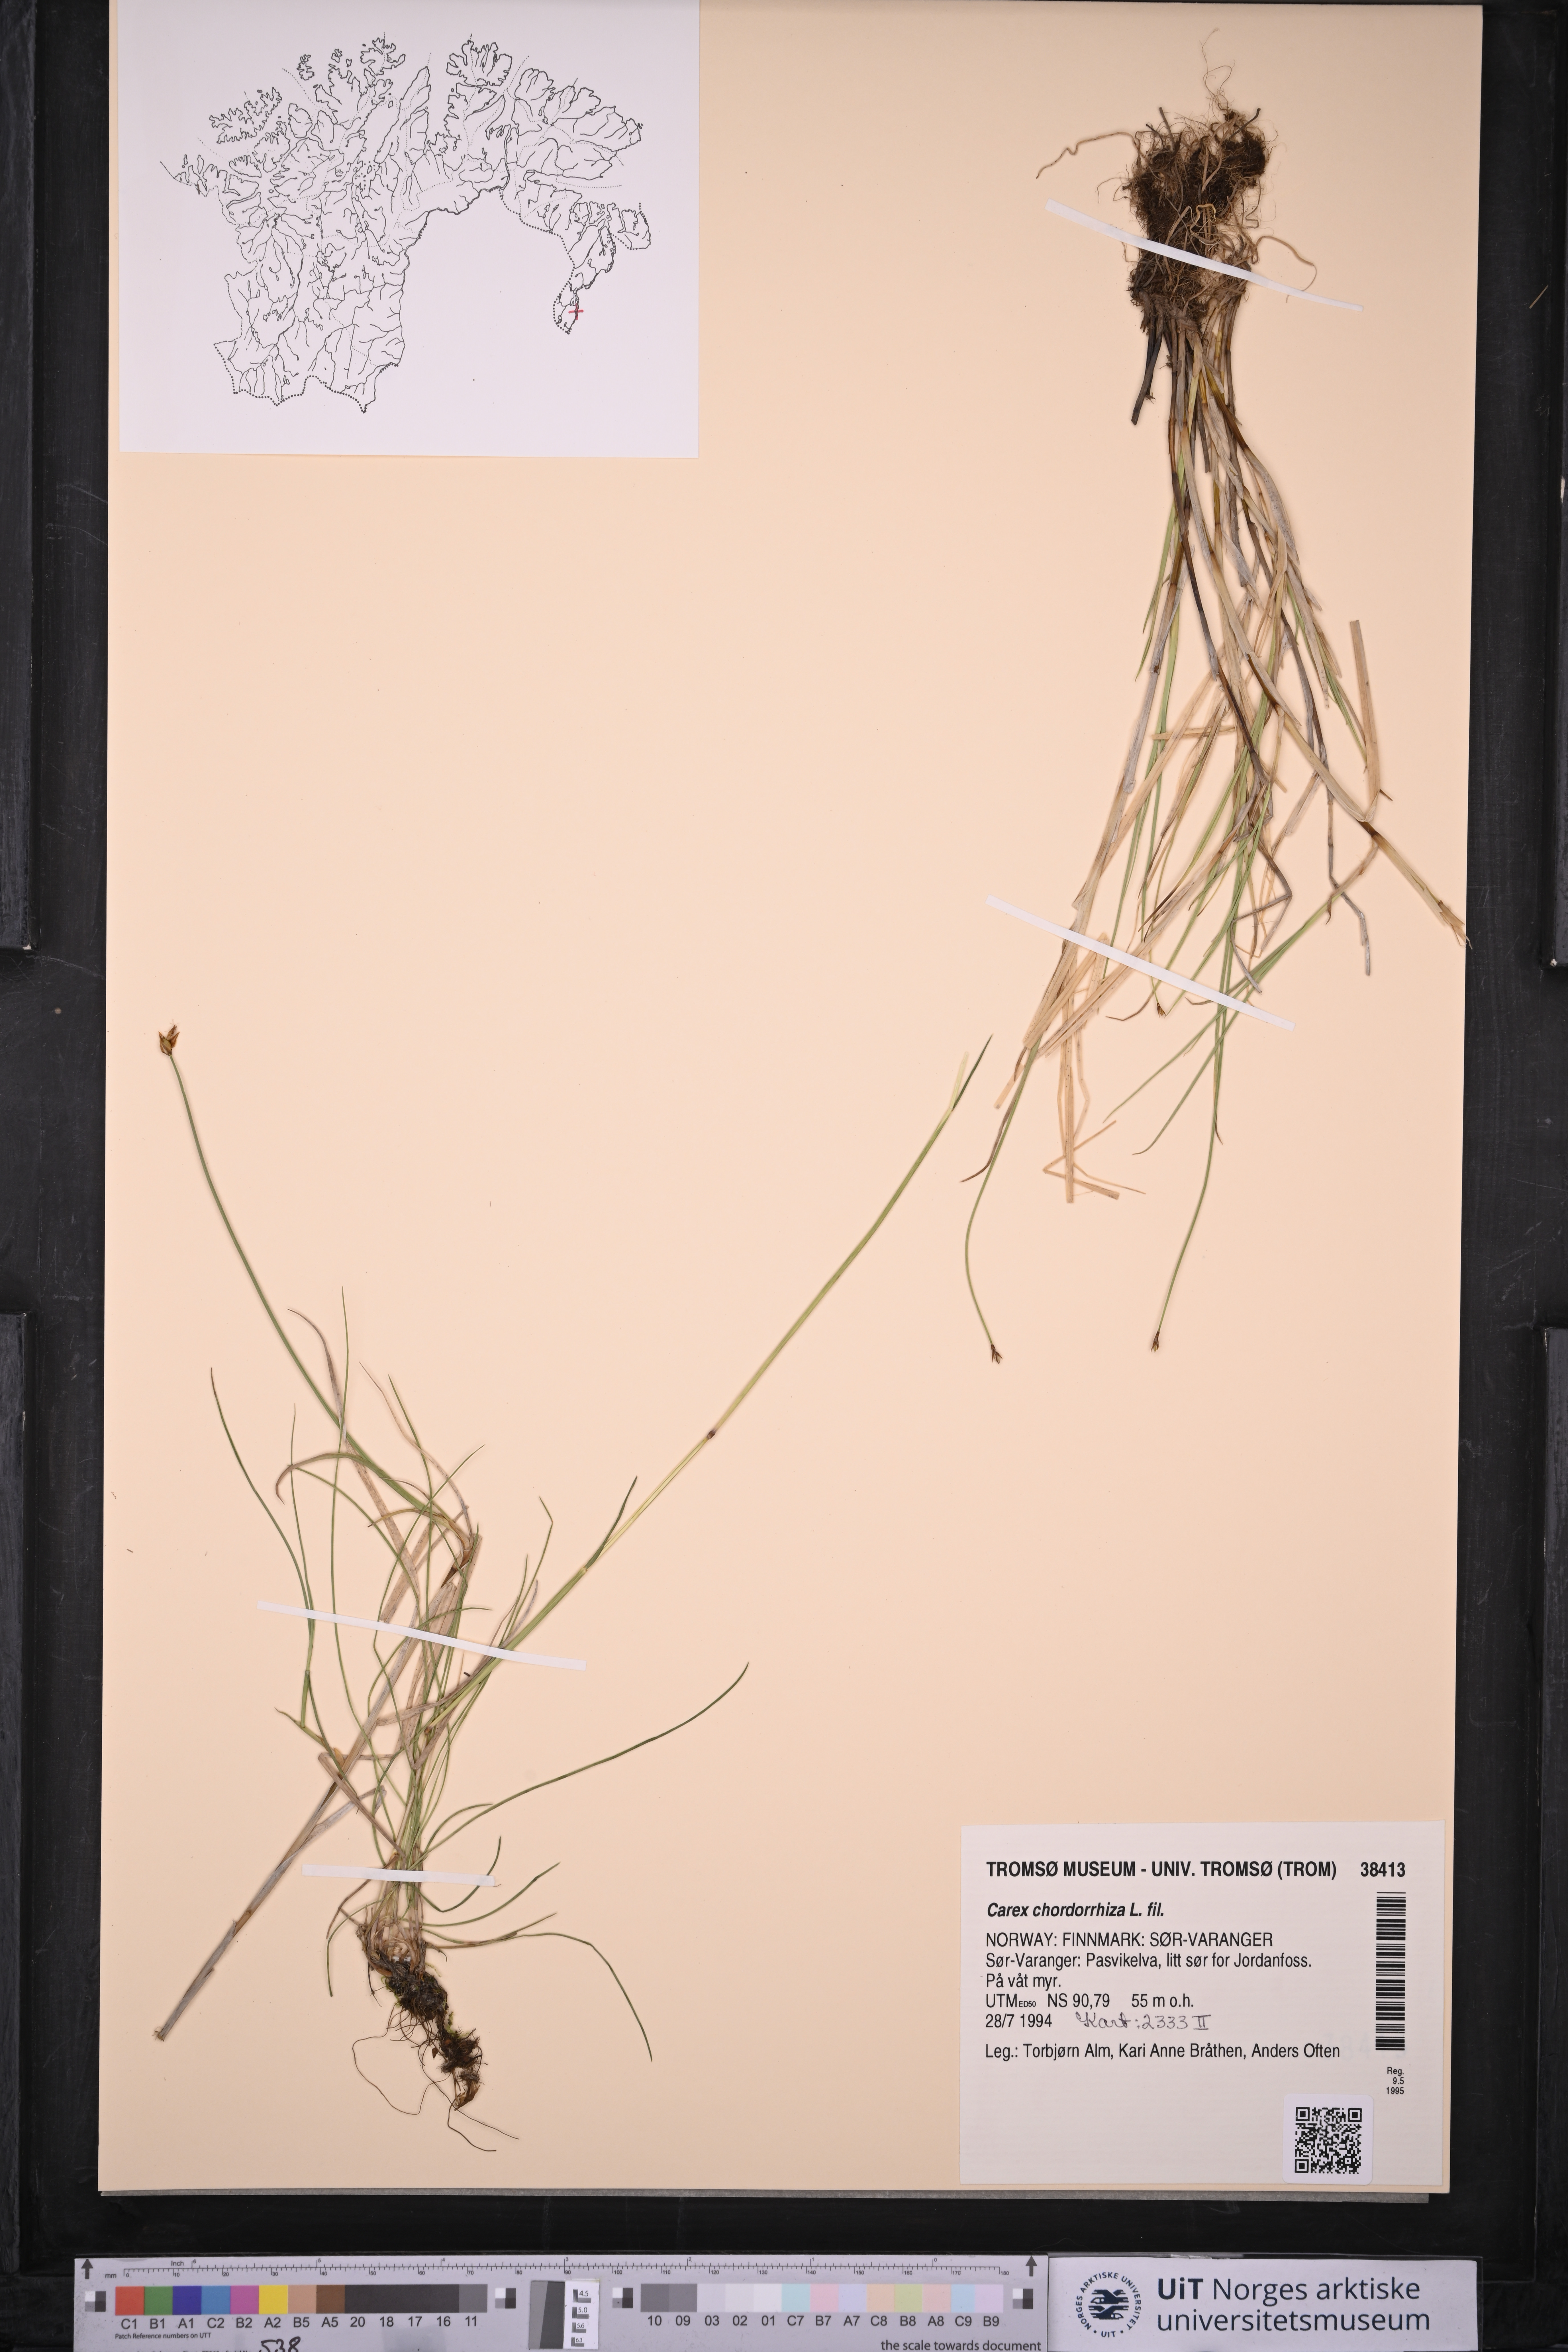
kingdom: Plantae
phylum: Tracheophyta
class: Liliopsida
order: Poales
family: Cyperaceae
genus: Carex
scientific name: Carex chordorrhiza
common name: String sedge
